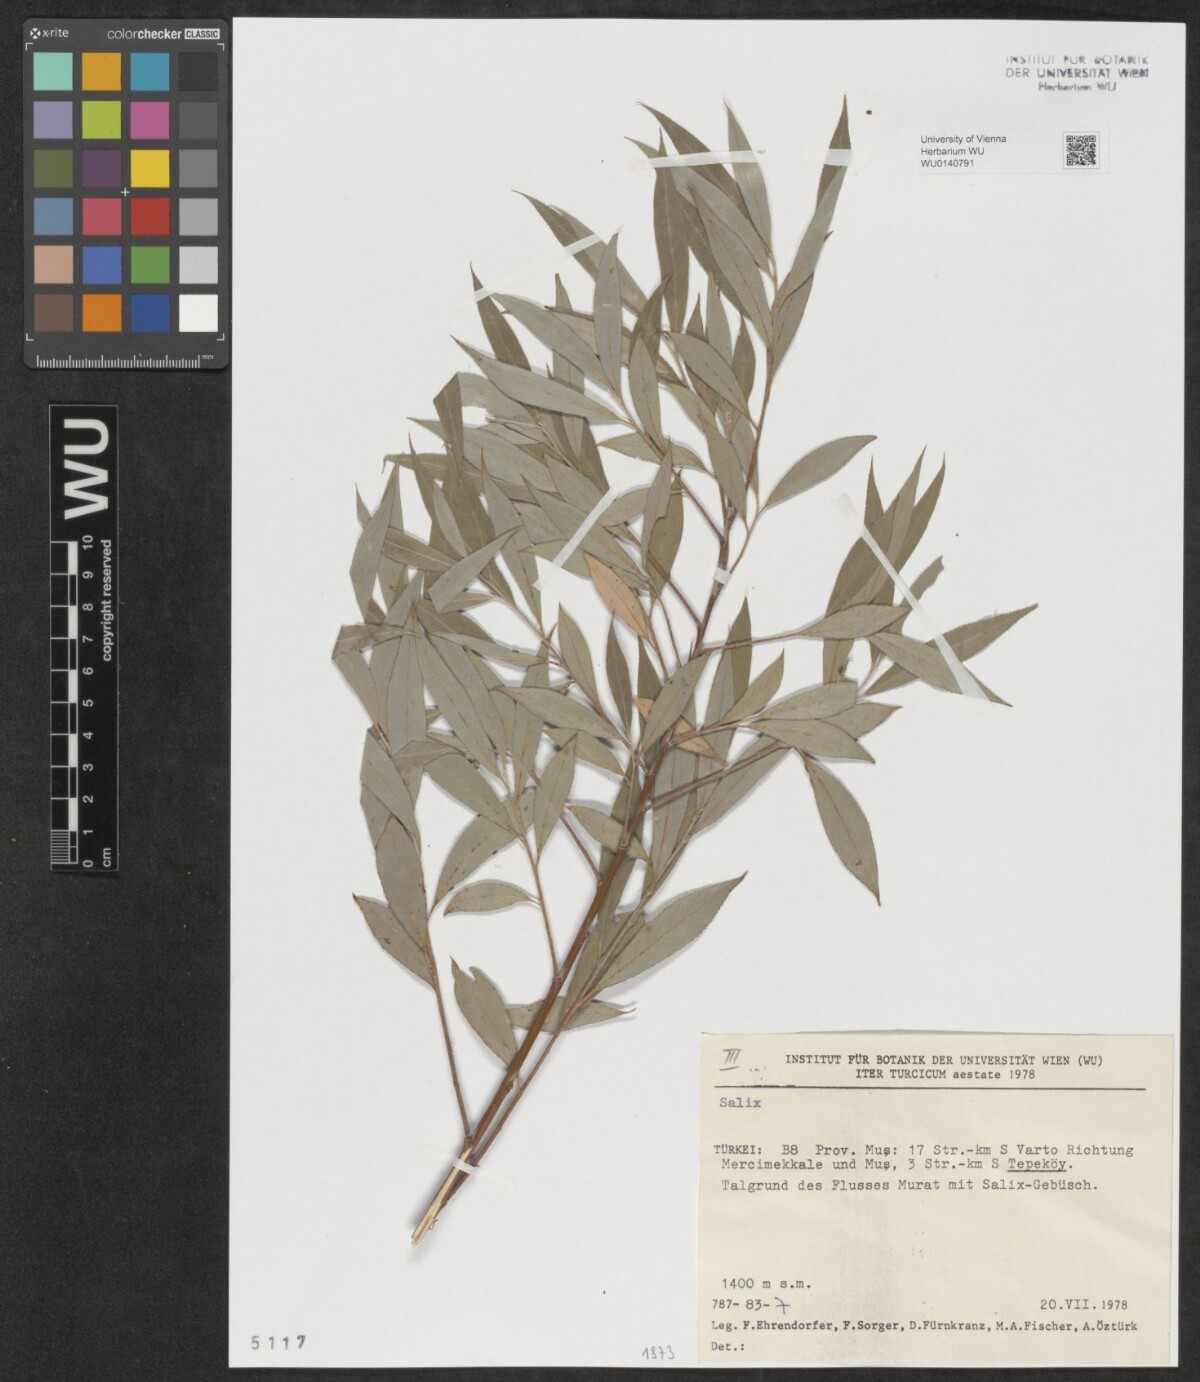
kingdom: Plantae
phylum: Tracheophyta
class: Magnoliopsida
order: Malpighiales
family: Salicaceae
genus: Salix
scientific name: Salix
